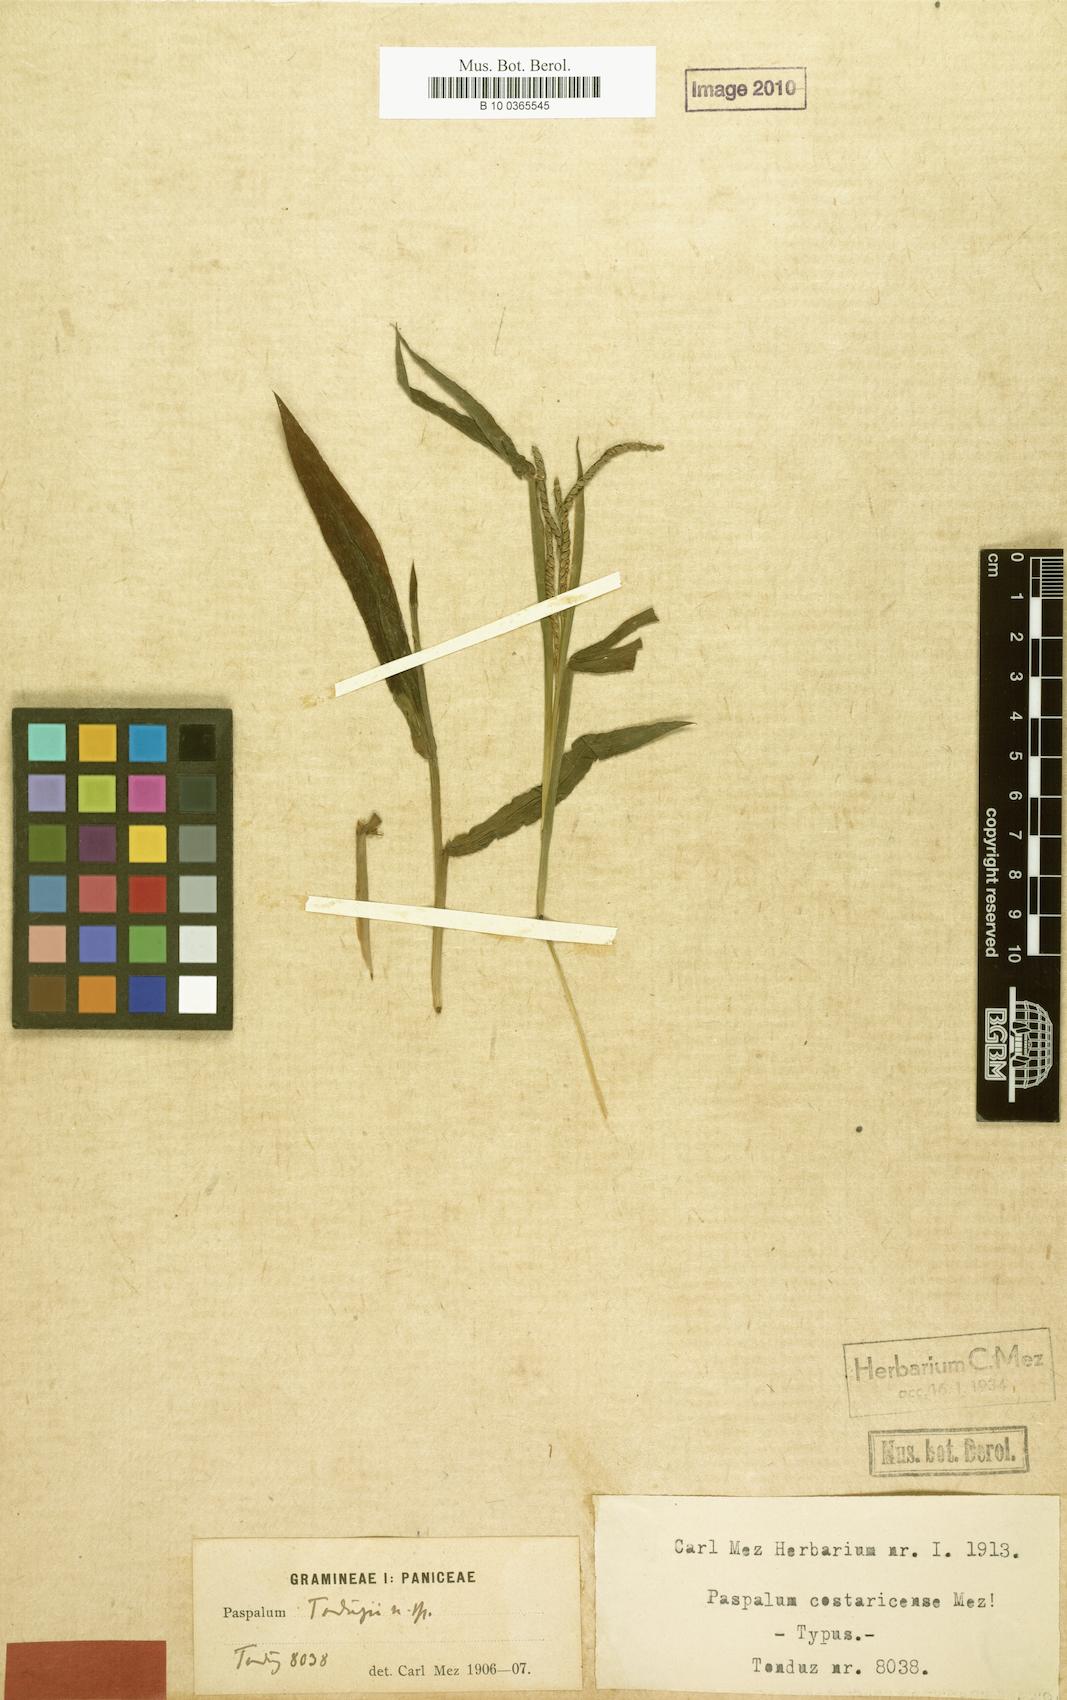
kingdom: Plantae
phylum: Tracheophyta
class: Liliopsida
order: Poales
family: Poaceae
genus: Paspalum
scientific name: Paspalum costaricense
